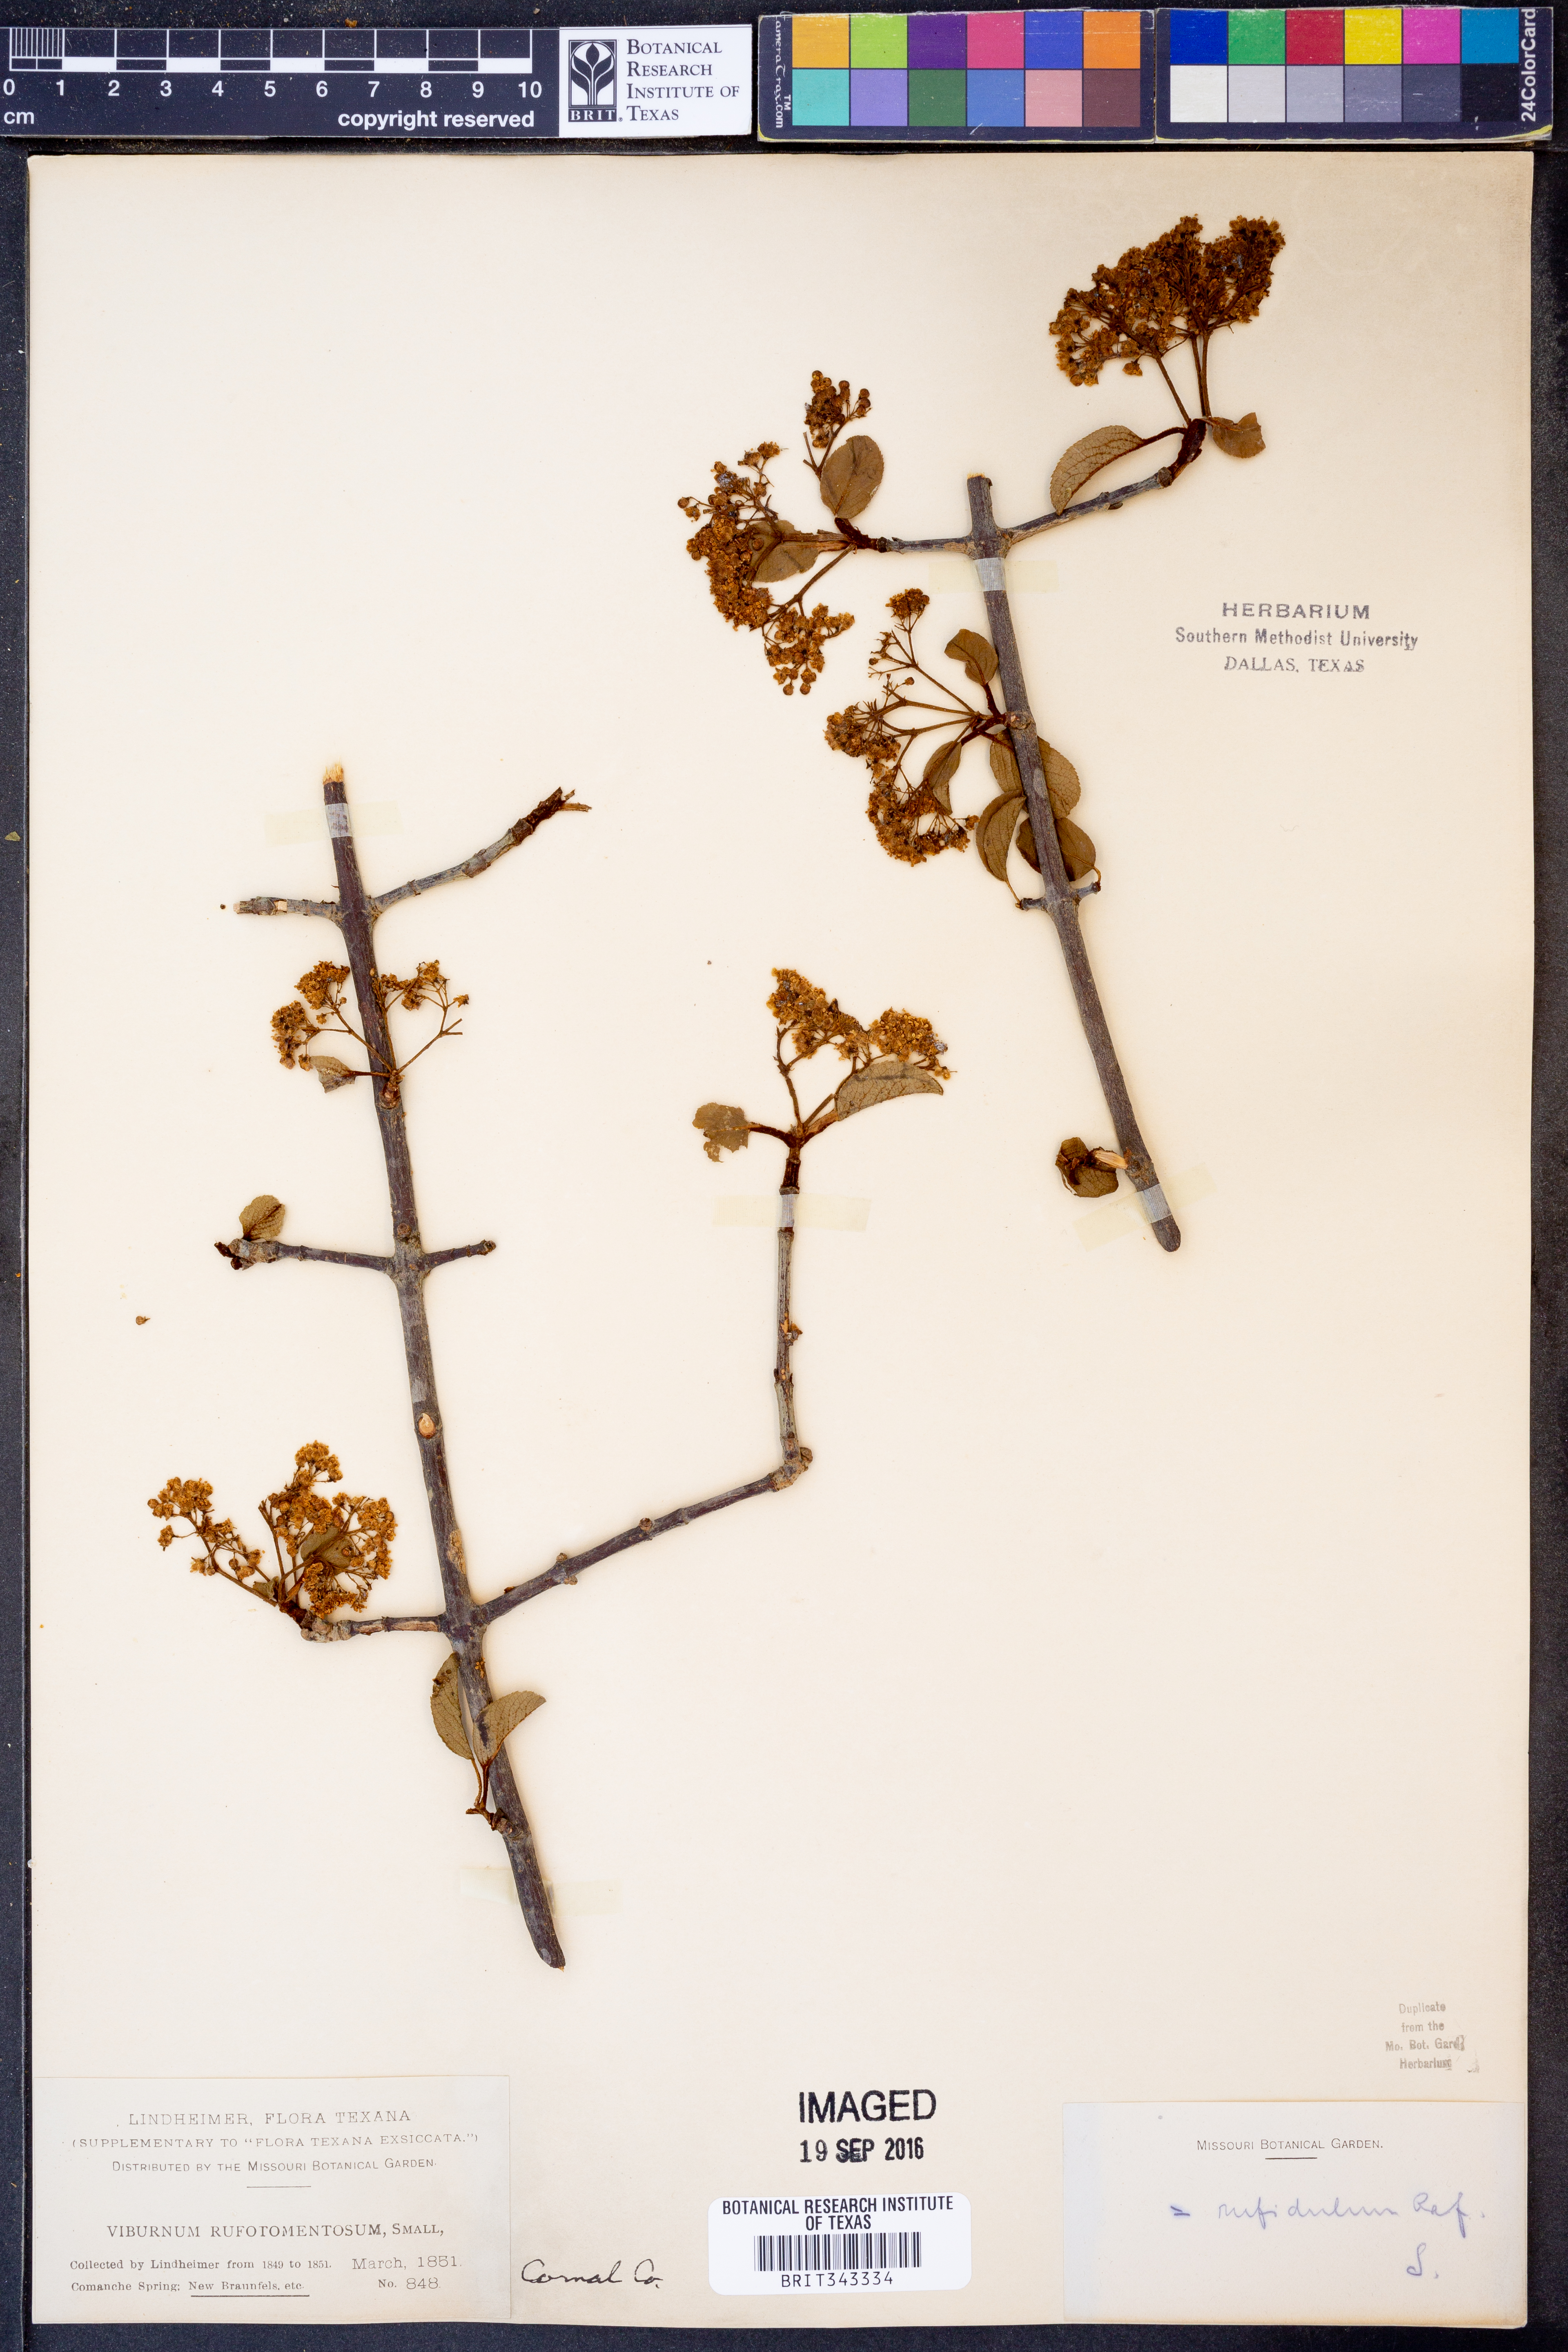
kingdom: Plantae
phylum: Tracheophyta
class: Magnoliopsida
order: Dipsacales
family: Viburnaceae
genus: Viburnum
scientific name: Viburnum rufidulum
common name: Blue haw
